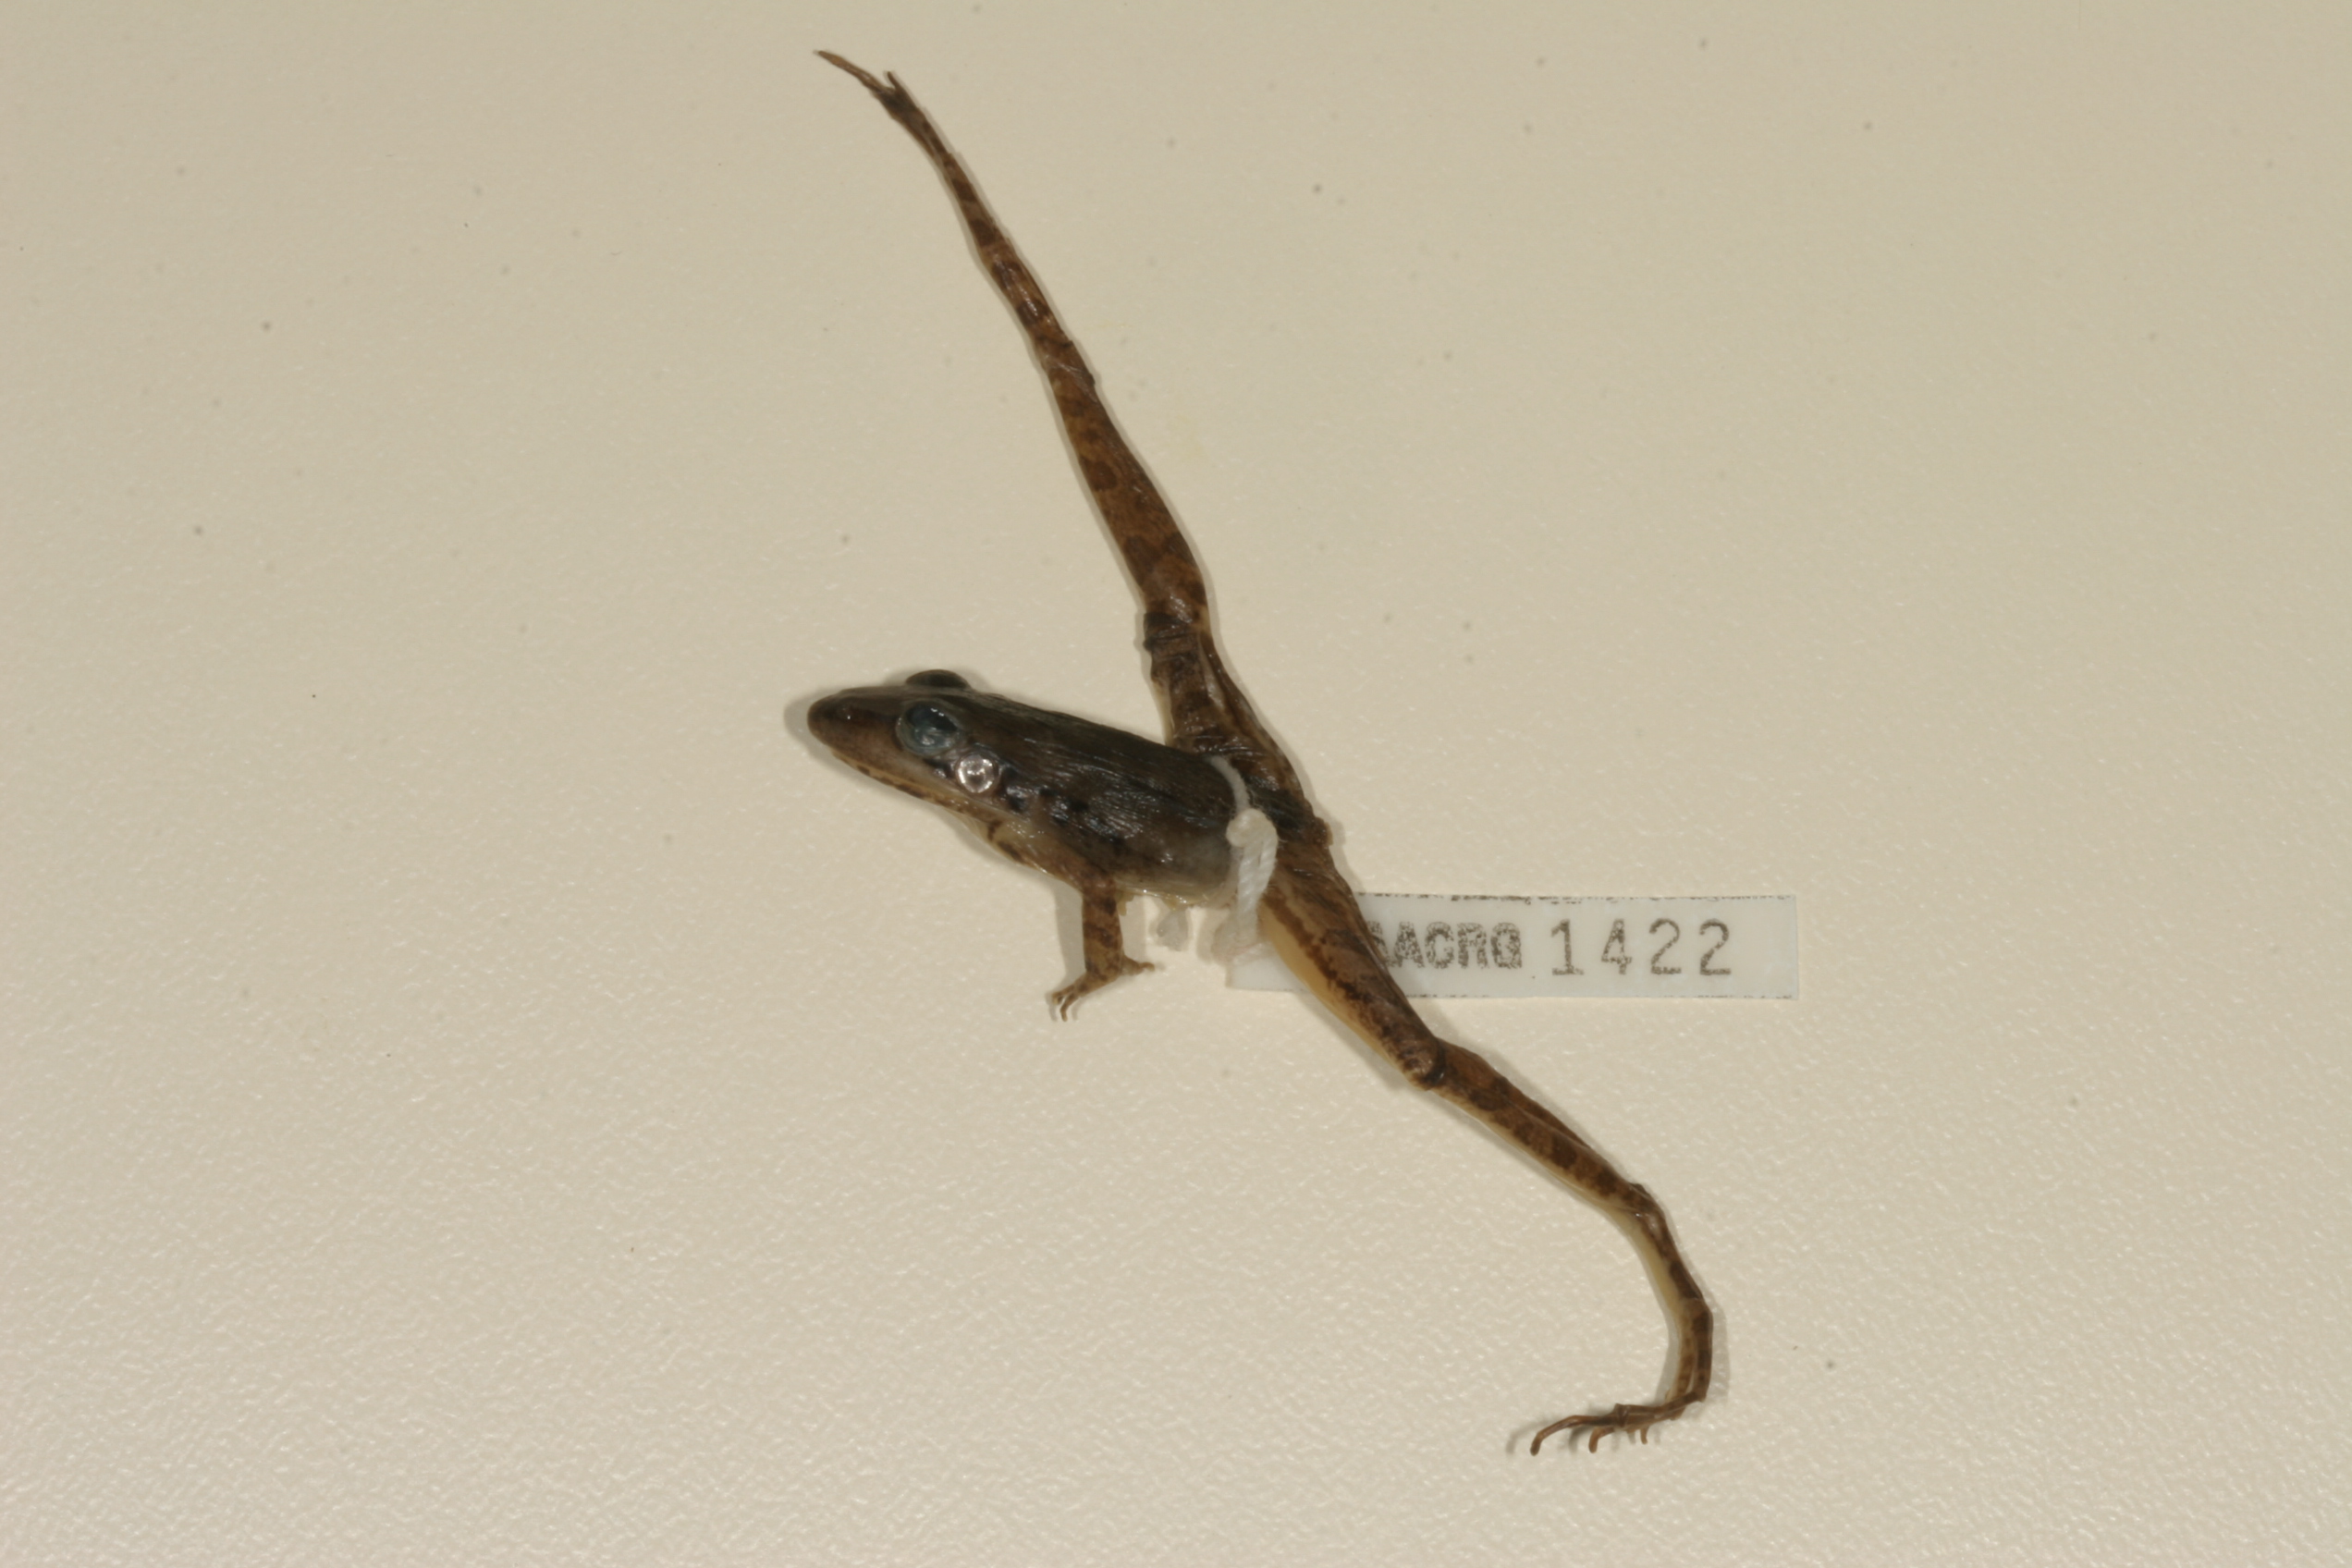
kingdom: Animalia
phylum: Chordata
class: Amphibia
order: Anura
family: Ptychadenidae
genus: Ptychadena
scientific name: Ptychadena anchietae
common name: Anchieta's ridged frog
